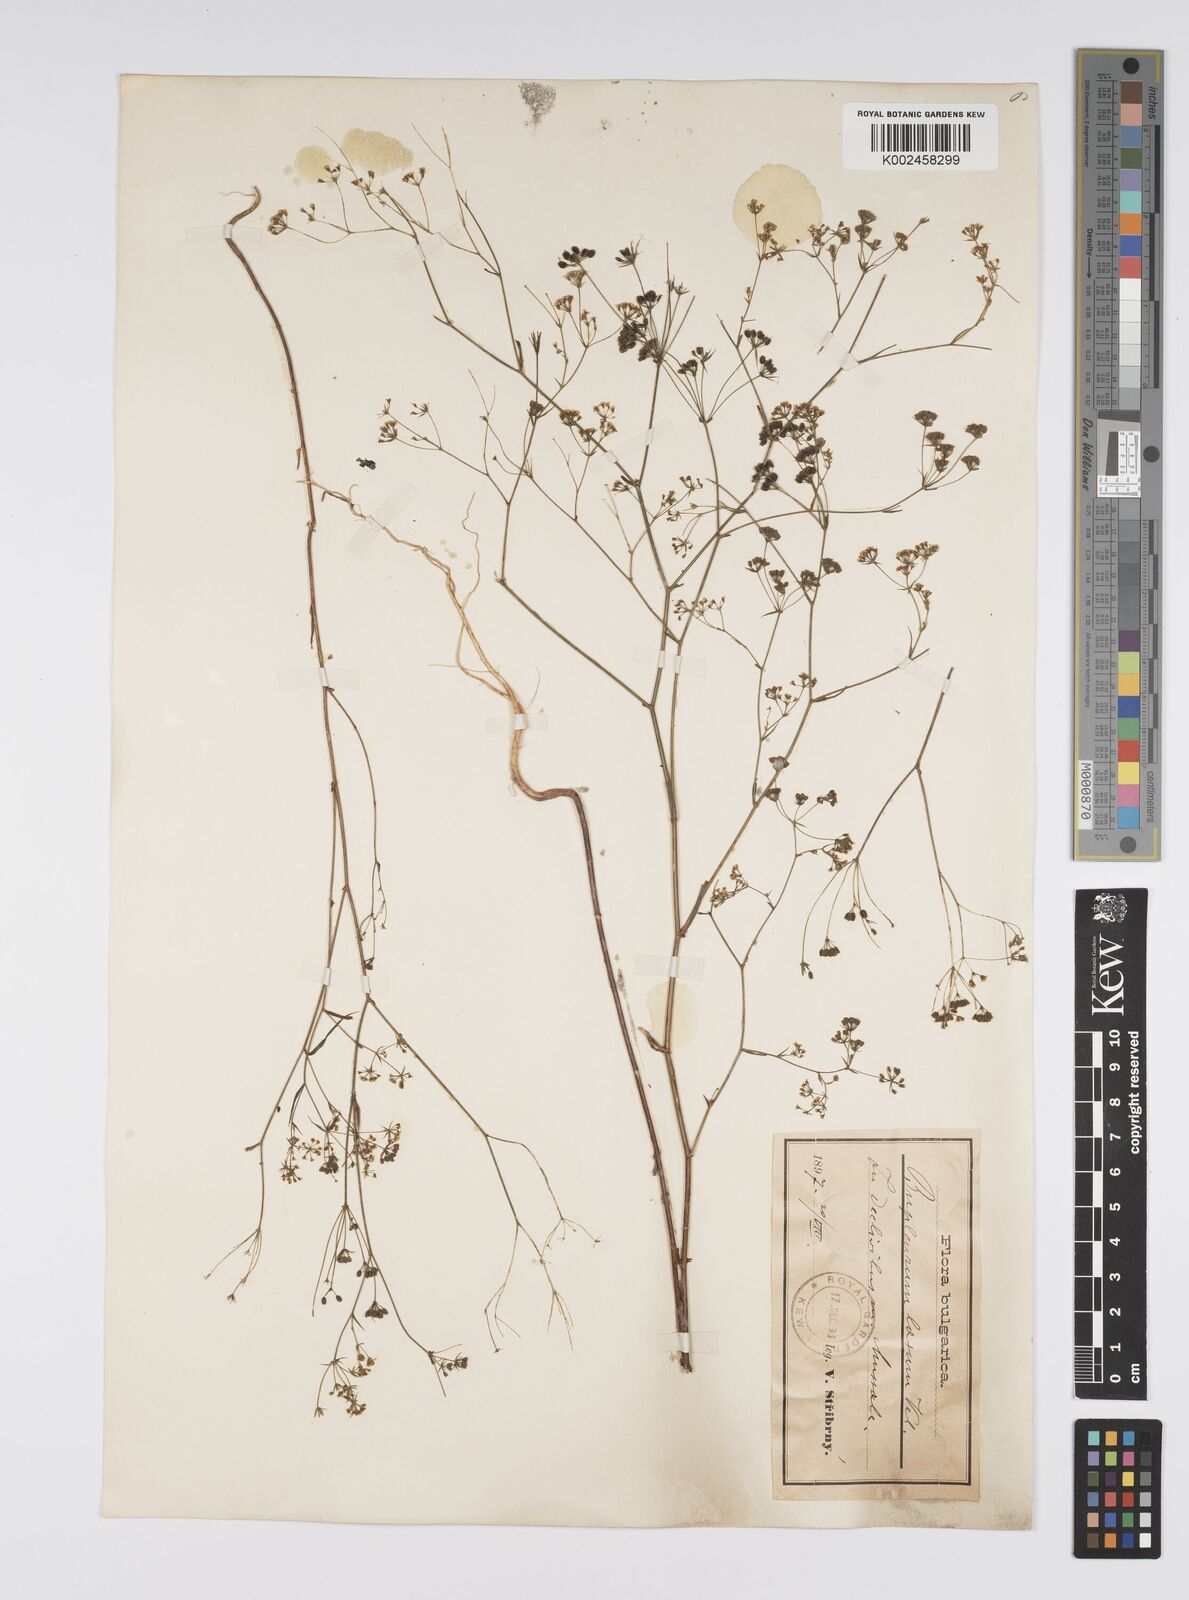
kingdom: Plantae
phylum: Tracheophyta
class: Magnoliopsida
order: Apiales
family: Apiaceae
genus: Bupleurum
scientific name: Bupleurum commutatum
